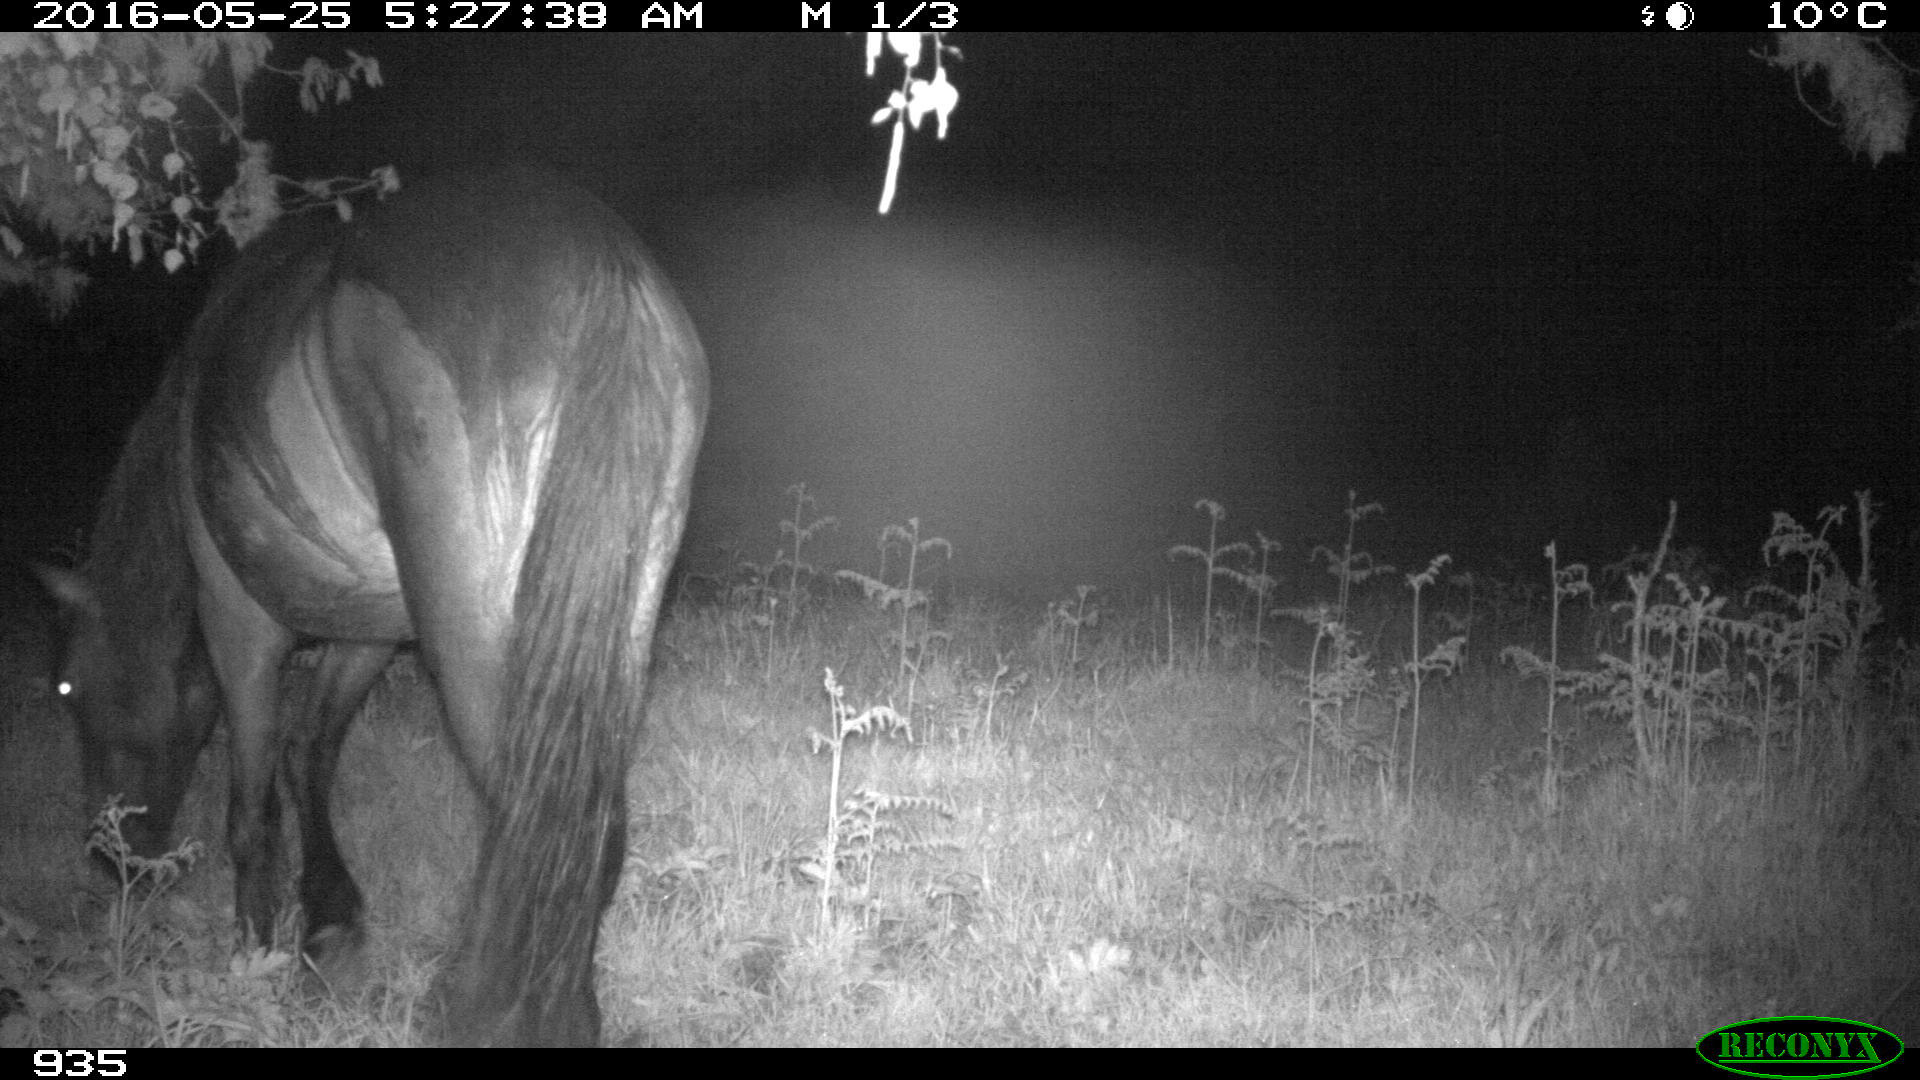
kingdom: Animalia
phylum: Chordata
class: Mammalia
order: Perissodactyla
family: Equidae
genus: Equus
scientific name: Equus caballus
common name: Horse
